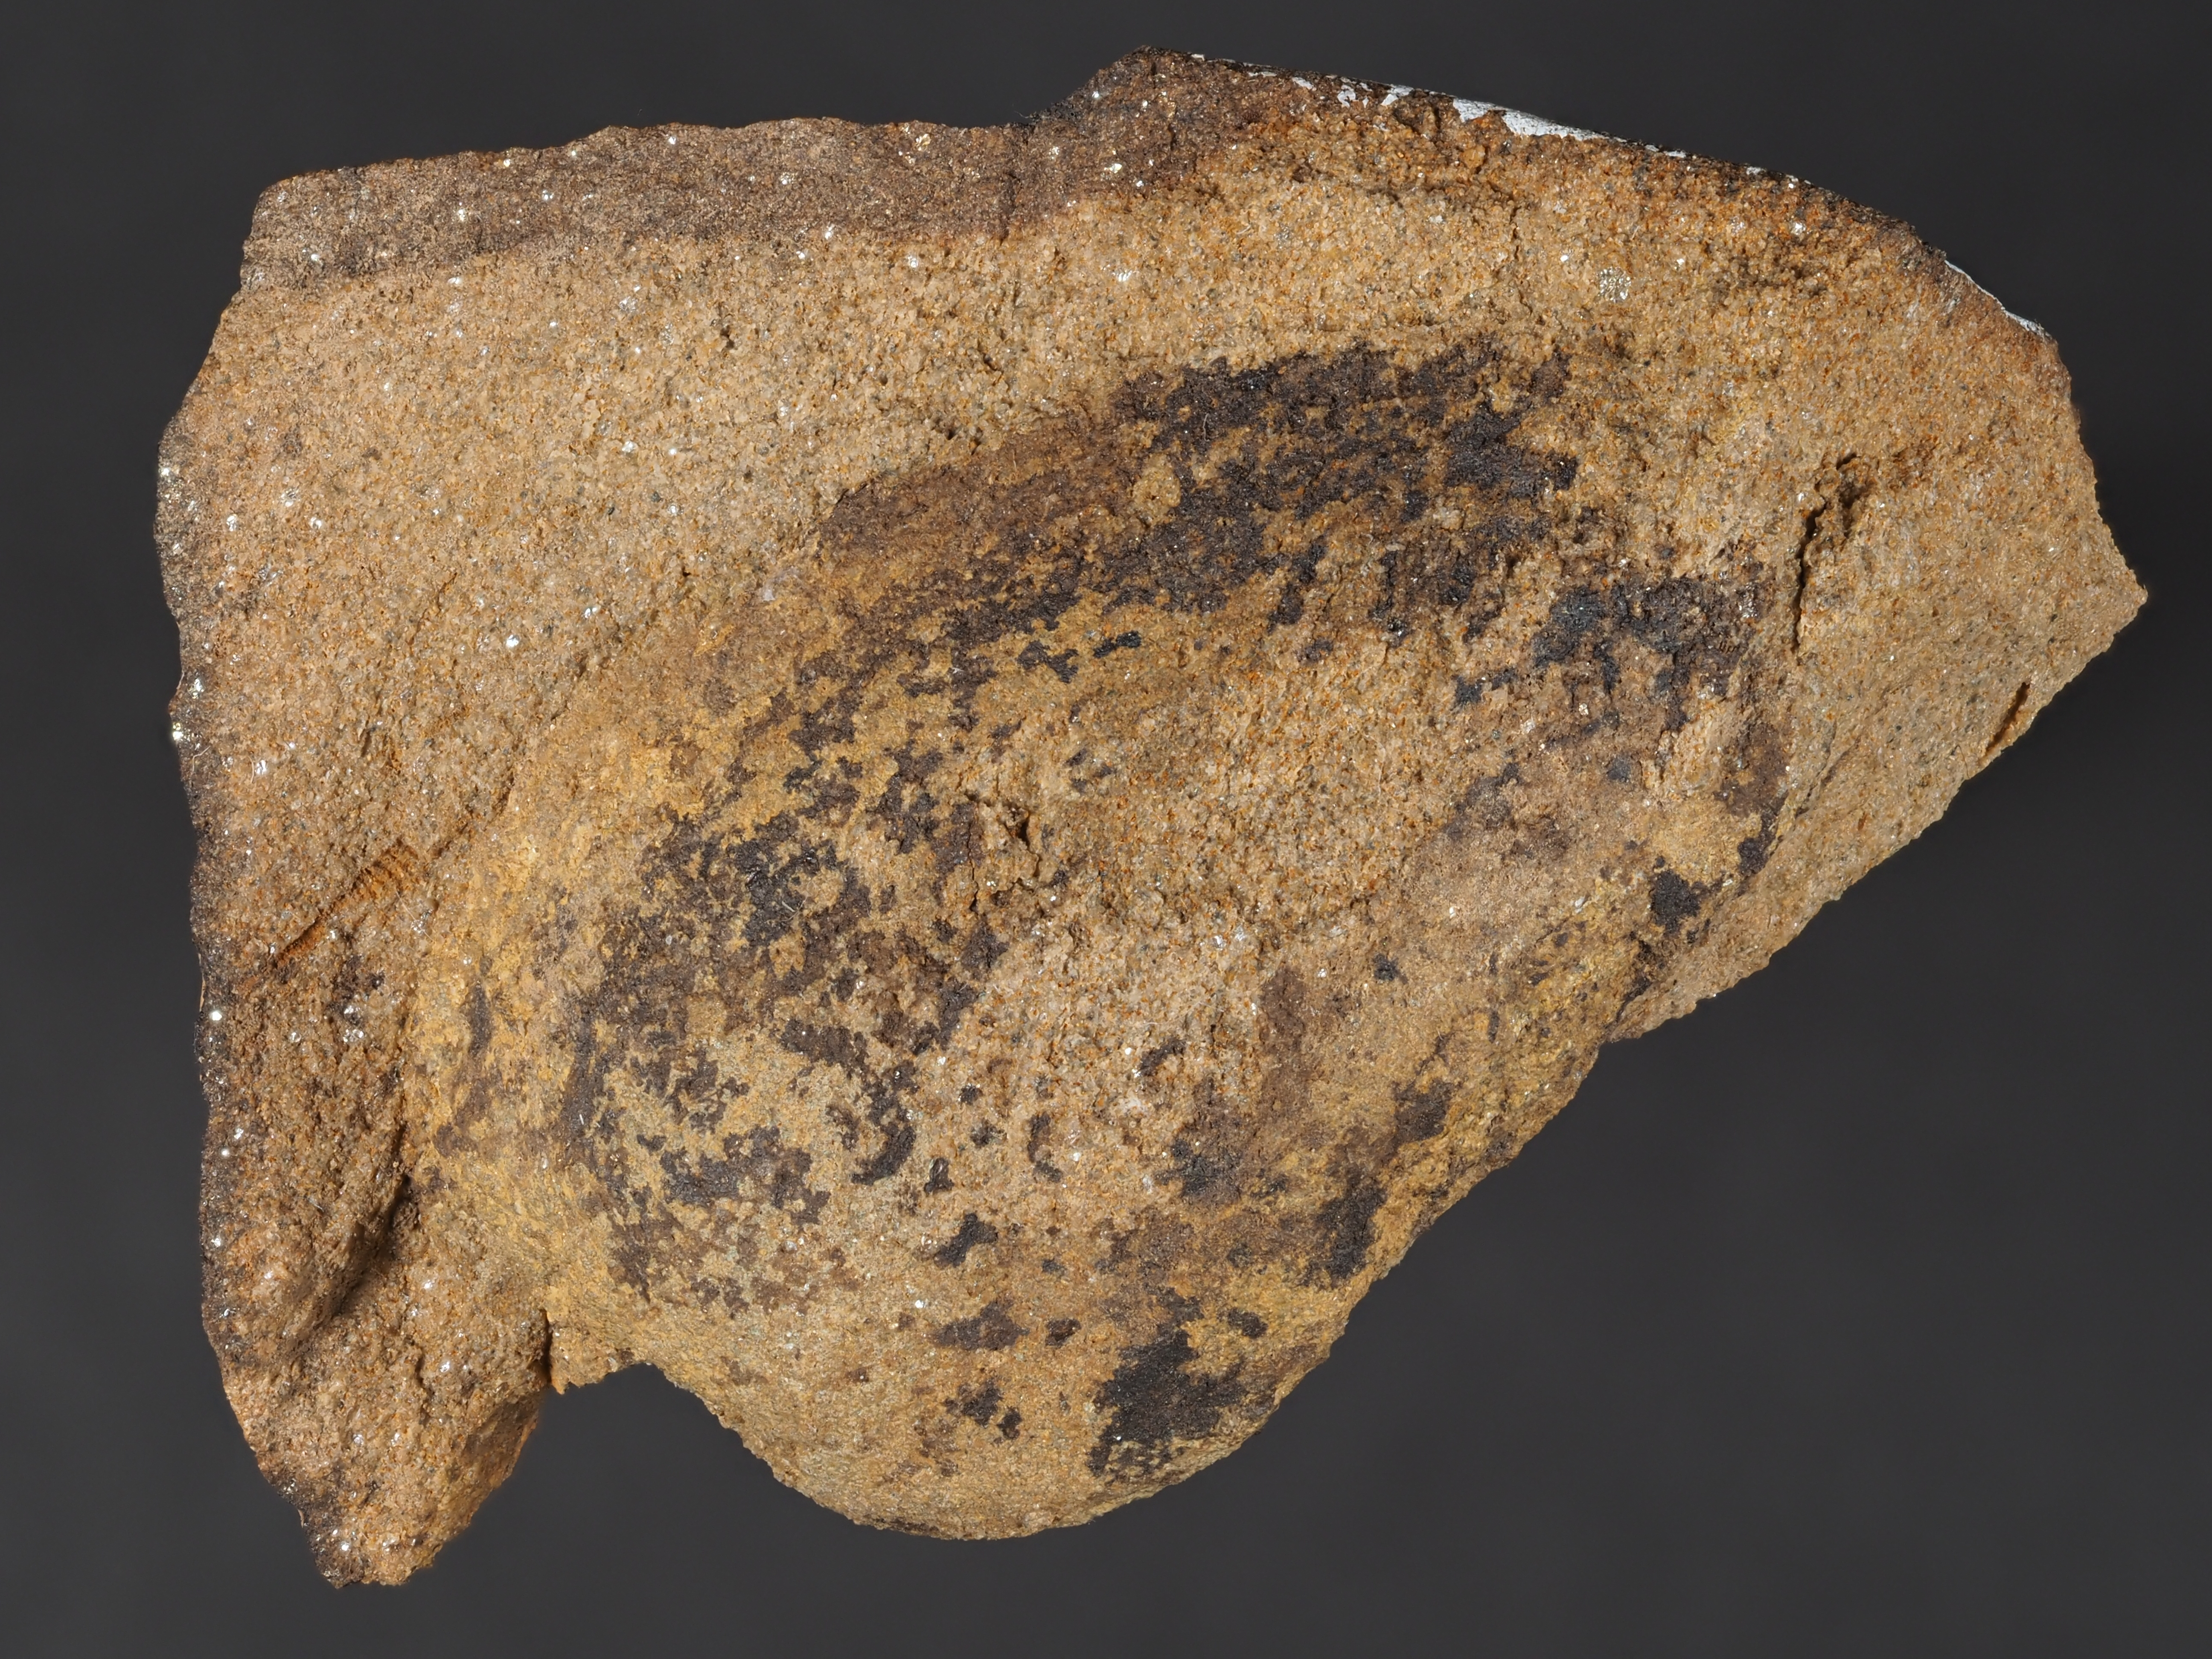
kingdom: Animalia
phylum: Mollusca
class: Bivalvia
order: Nuculanida
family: Malletiidae
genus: Palaeoneilo
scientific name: Palaeoneilo
